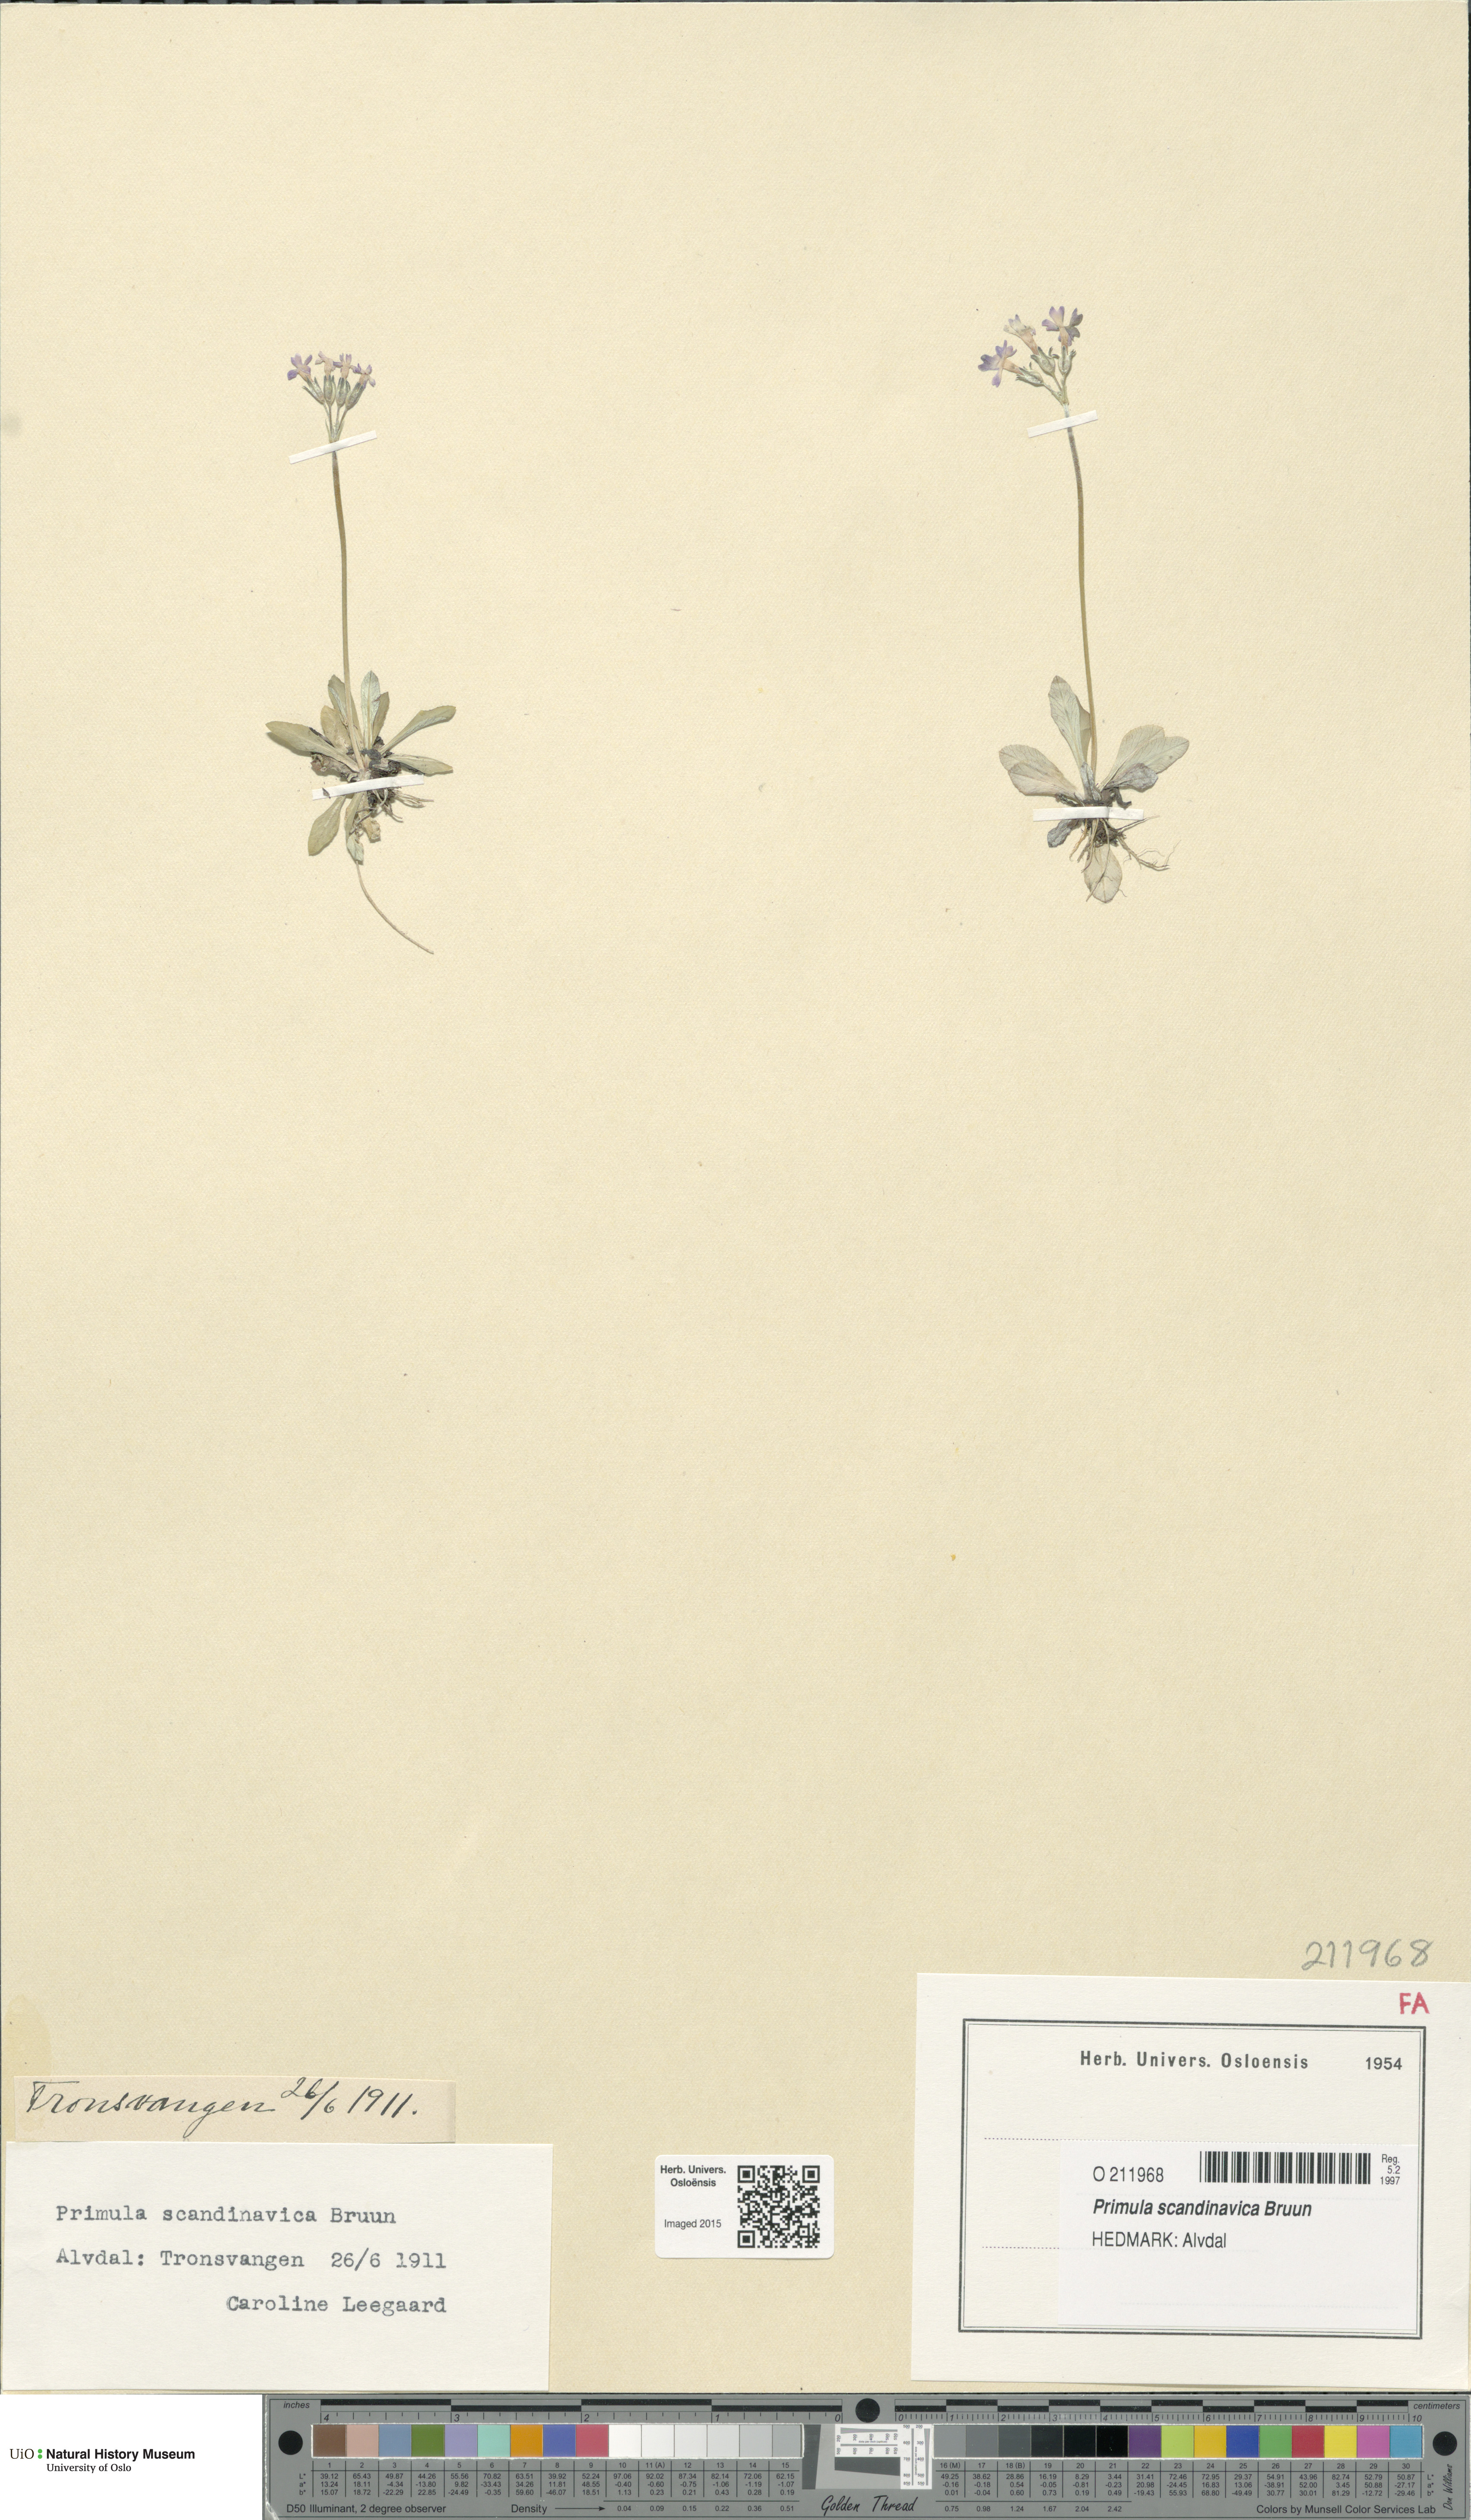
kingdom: Plantae
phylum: Tracheophyta
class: Magnoliopsida
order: Ericales
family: Primulaceae
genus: Primula
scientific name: Primula scandinavica
